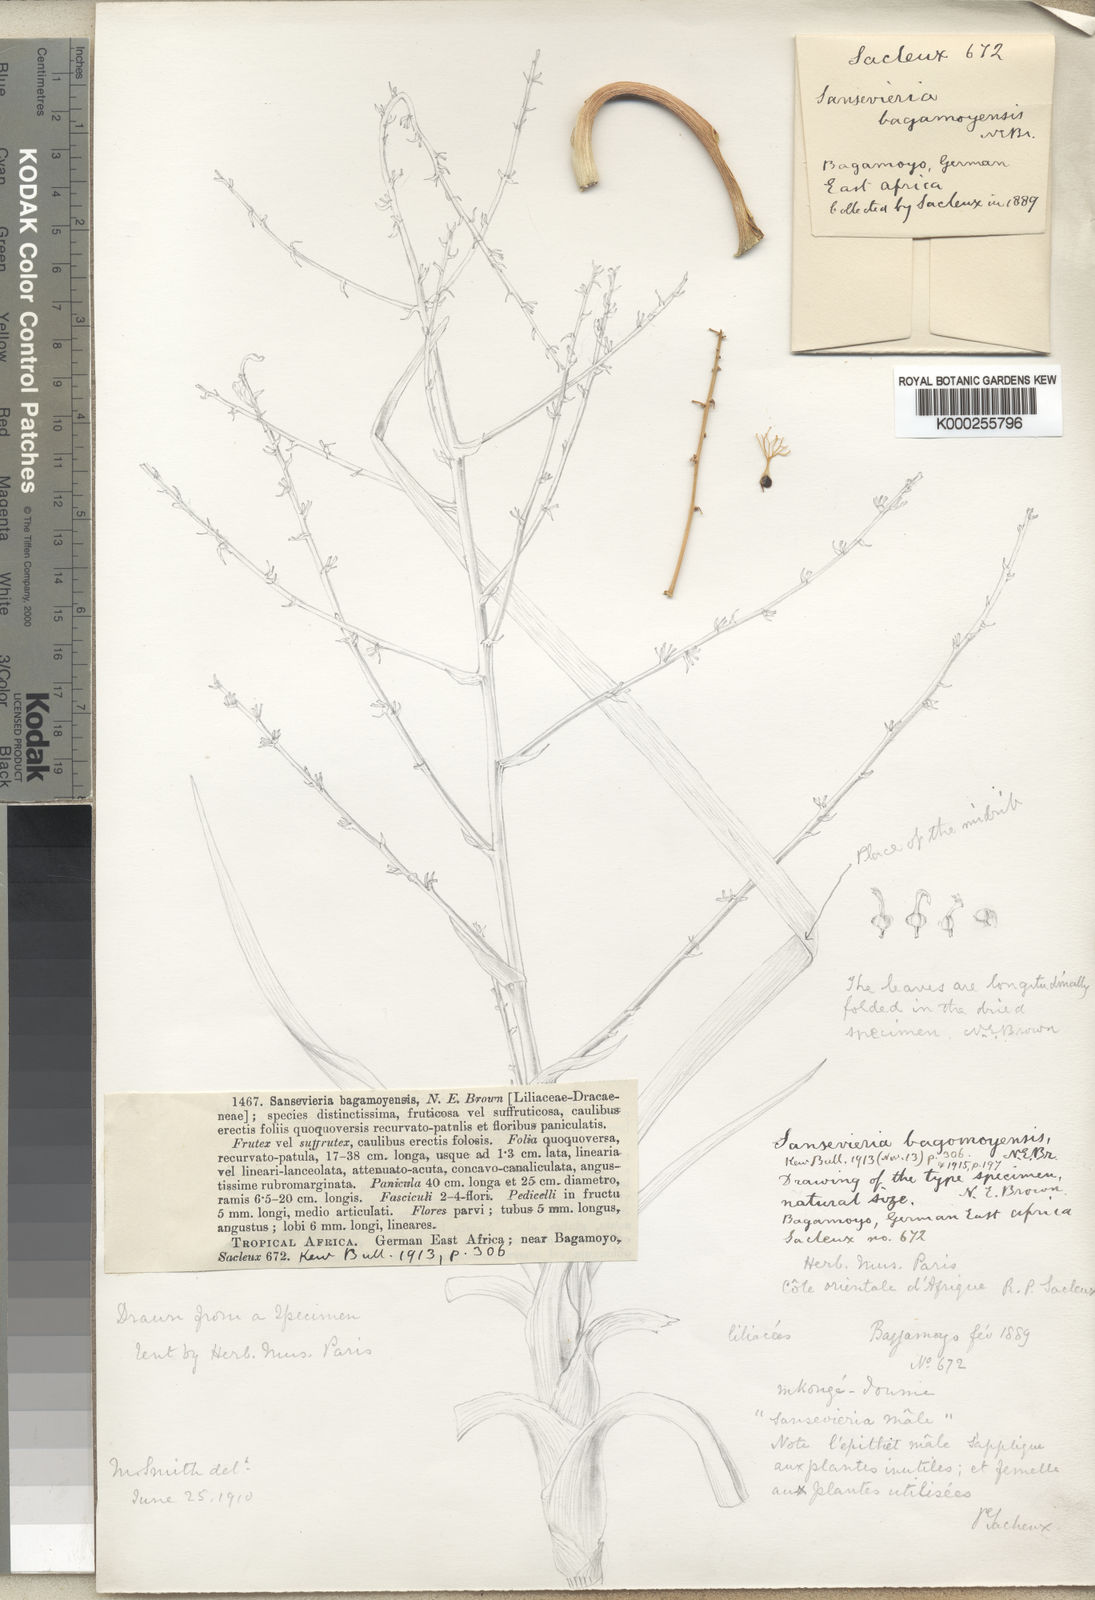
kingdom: Plantae
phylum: Tracheophyta
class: Liliopsida
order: Asparagales
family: Asparagaceae
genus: Dracaena
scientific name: Dracaena bagamoyensis
